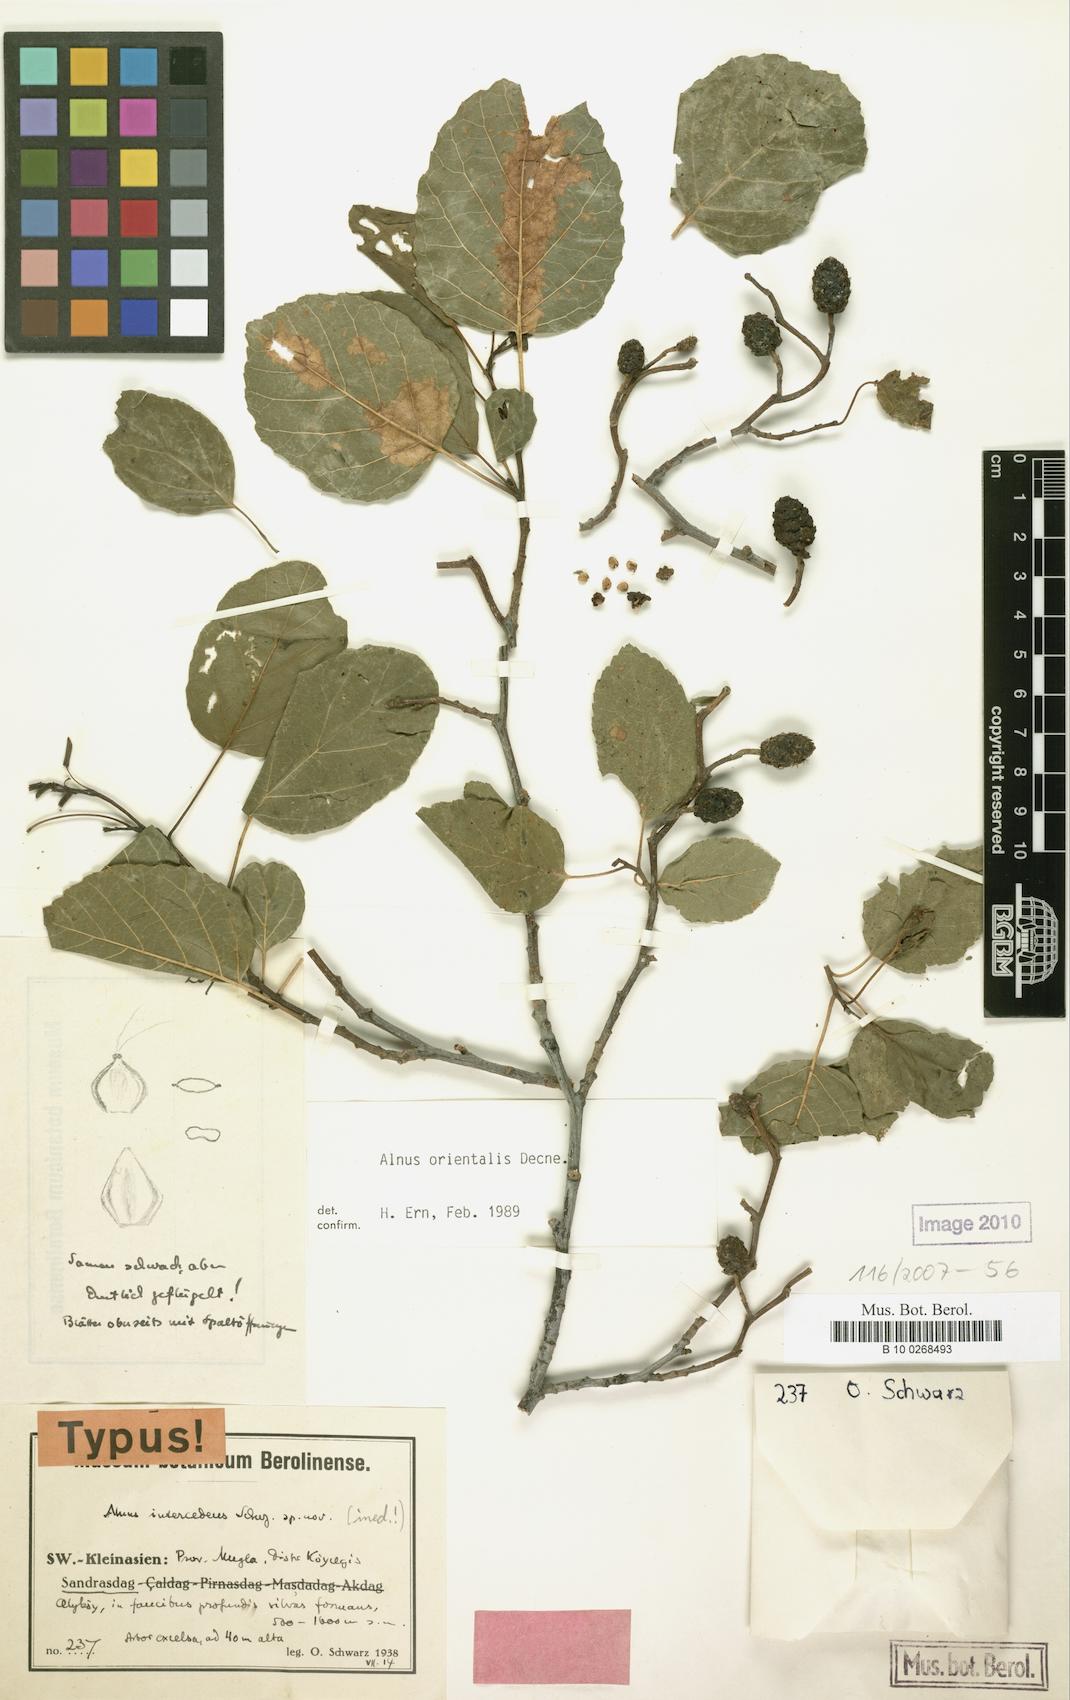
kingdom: Plantae
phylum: Tracheophyta
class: Magnoliopsida
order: Fagales
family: Betulaceae
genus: Alnus
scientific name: Alnus orientalis
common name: Oriental alder
